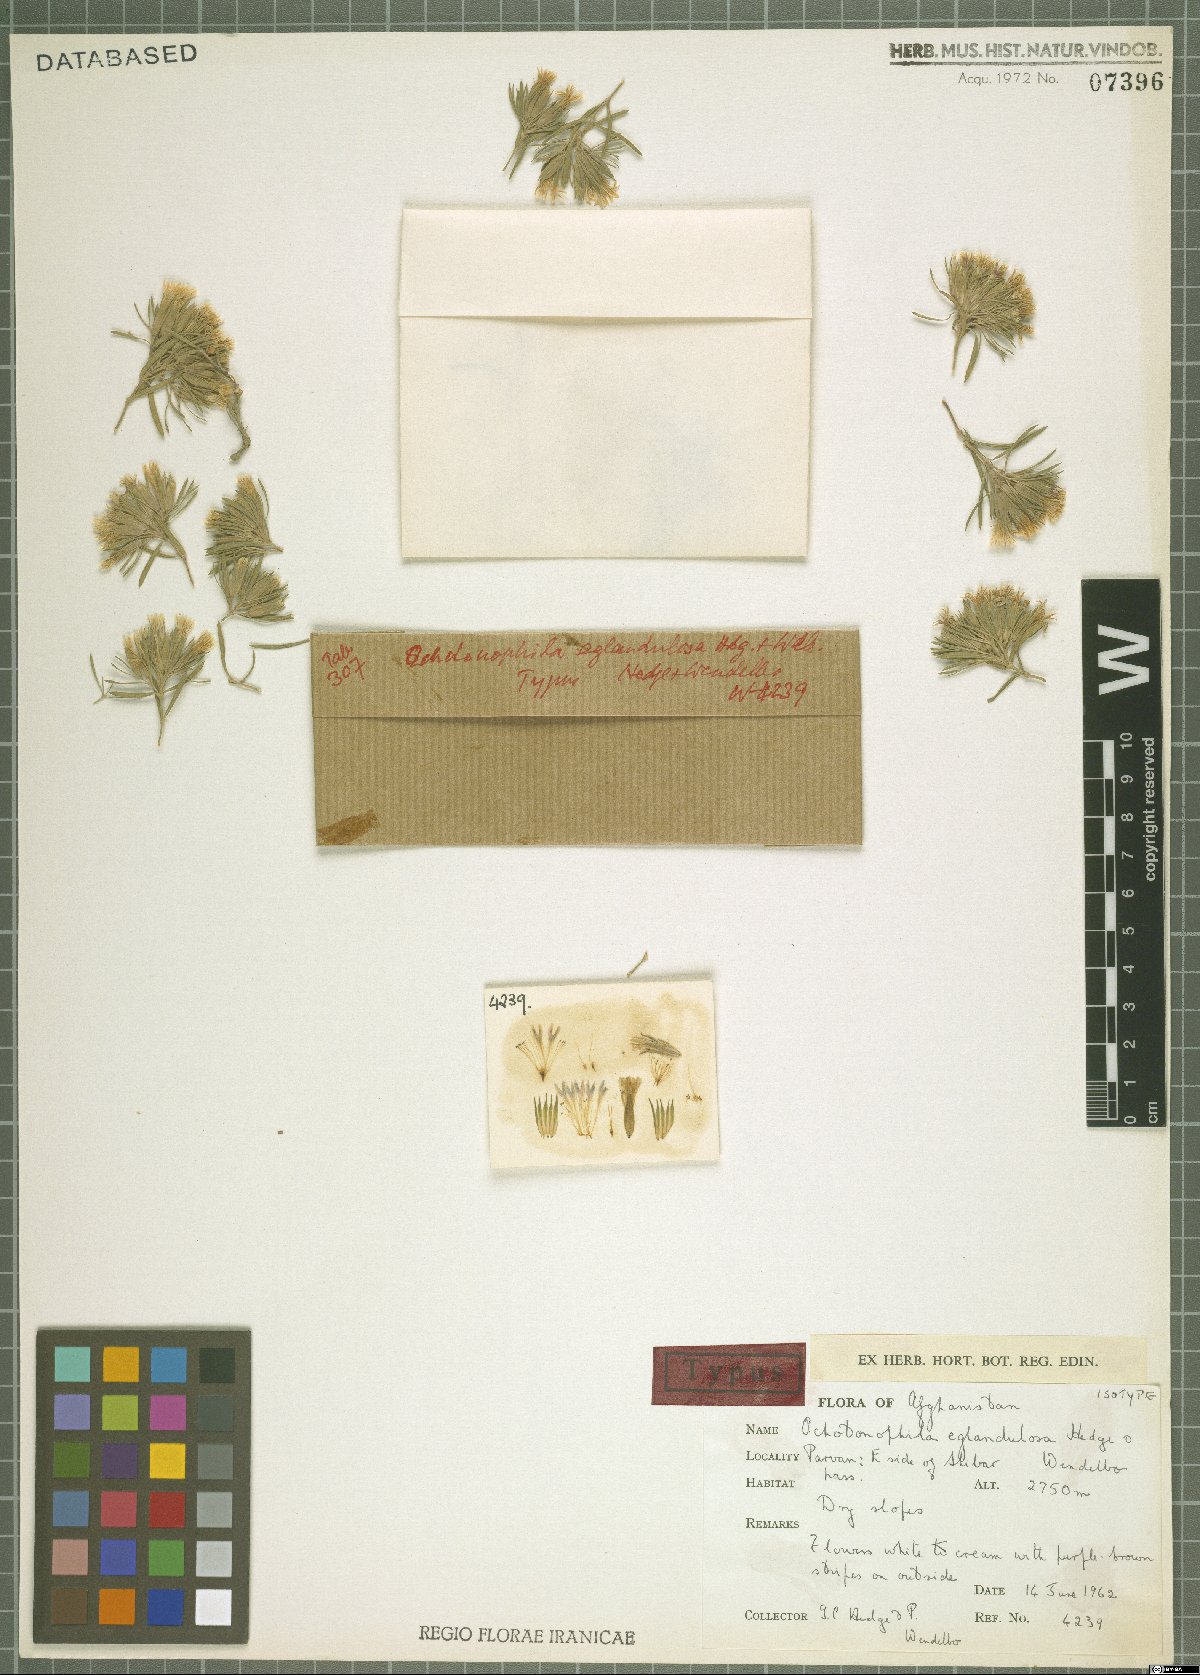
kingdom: Plantae
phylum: Tracheophyta
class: Magnoliopsida
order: Caryophyllales
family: Caryophyllaceae
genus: Acanthophyllum
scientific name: Acanthophyllum eglandulosum
